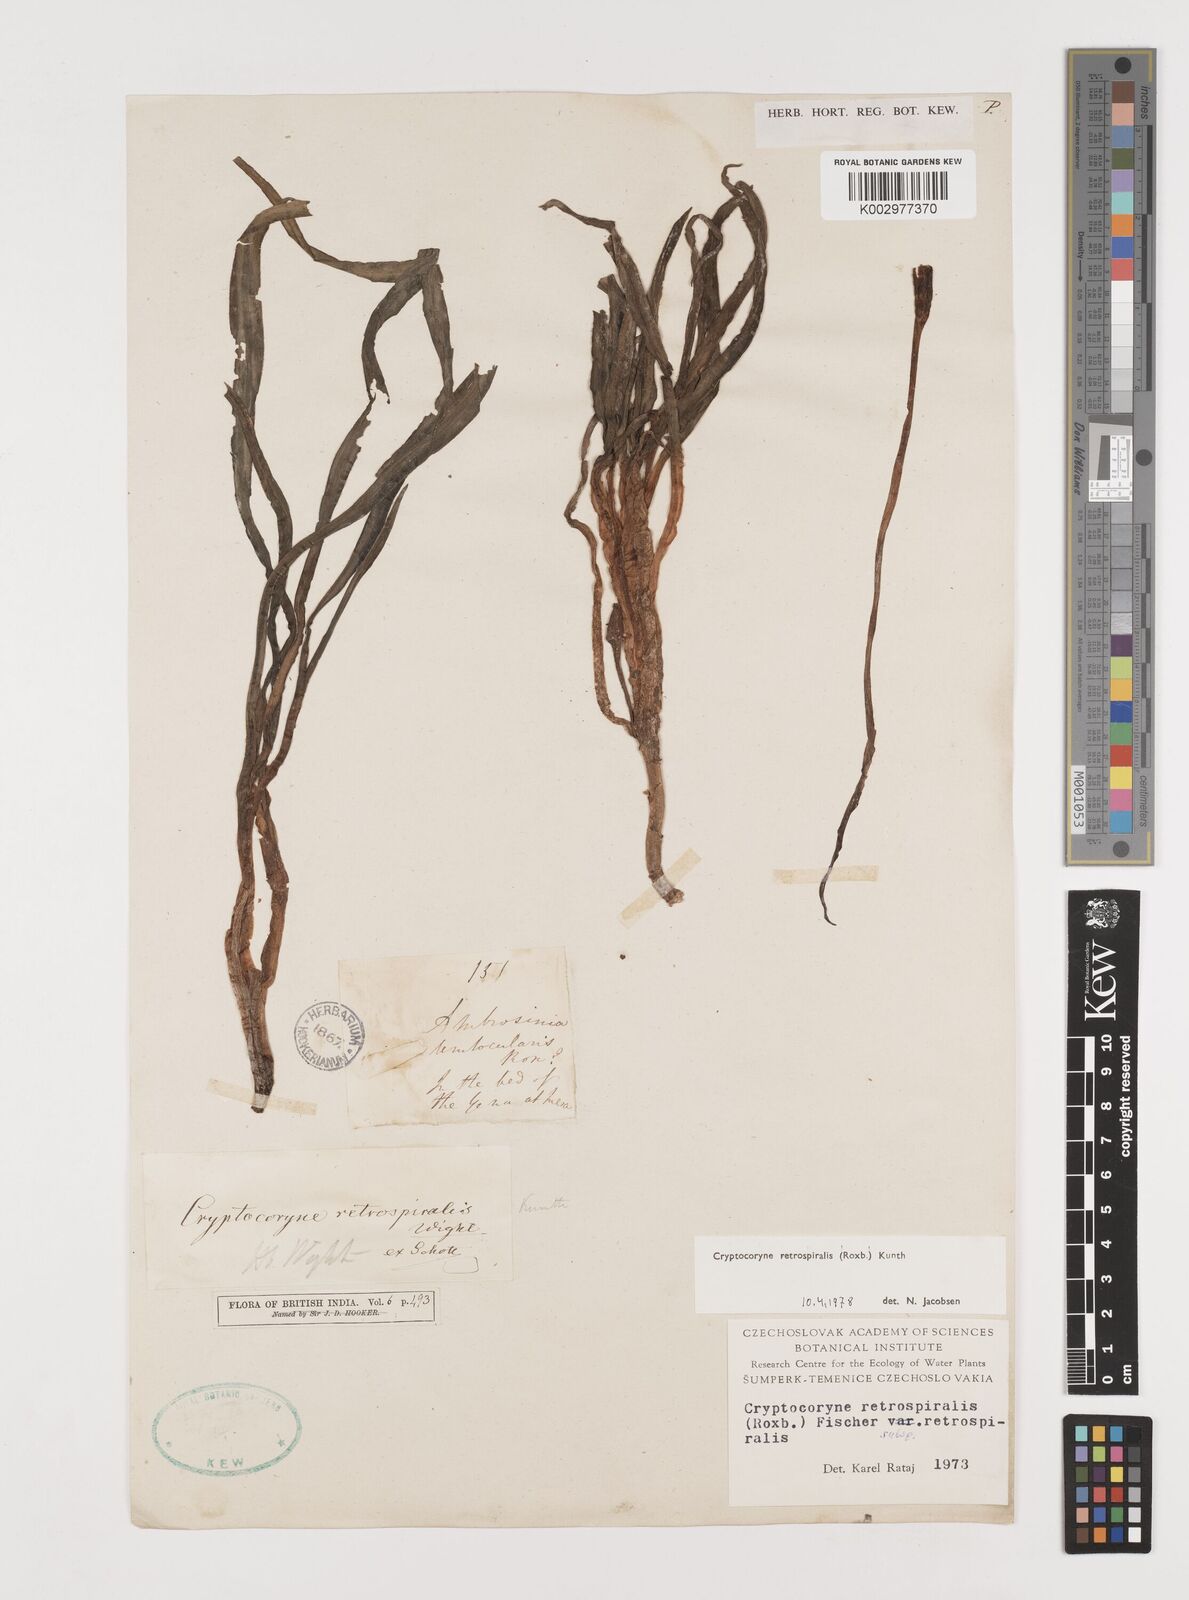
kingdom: Plantae
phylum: Tracheophyta
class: Liliopsida
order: Alismatales
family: Araceae
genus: Cryptocoryne
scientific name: Cryptocoryne retrospiralis
